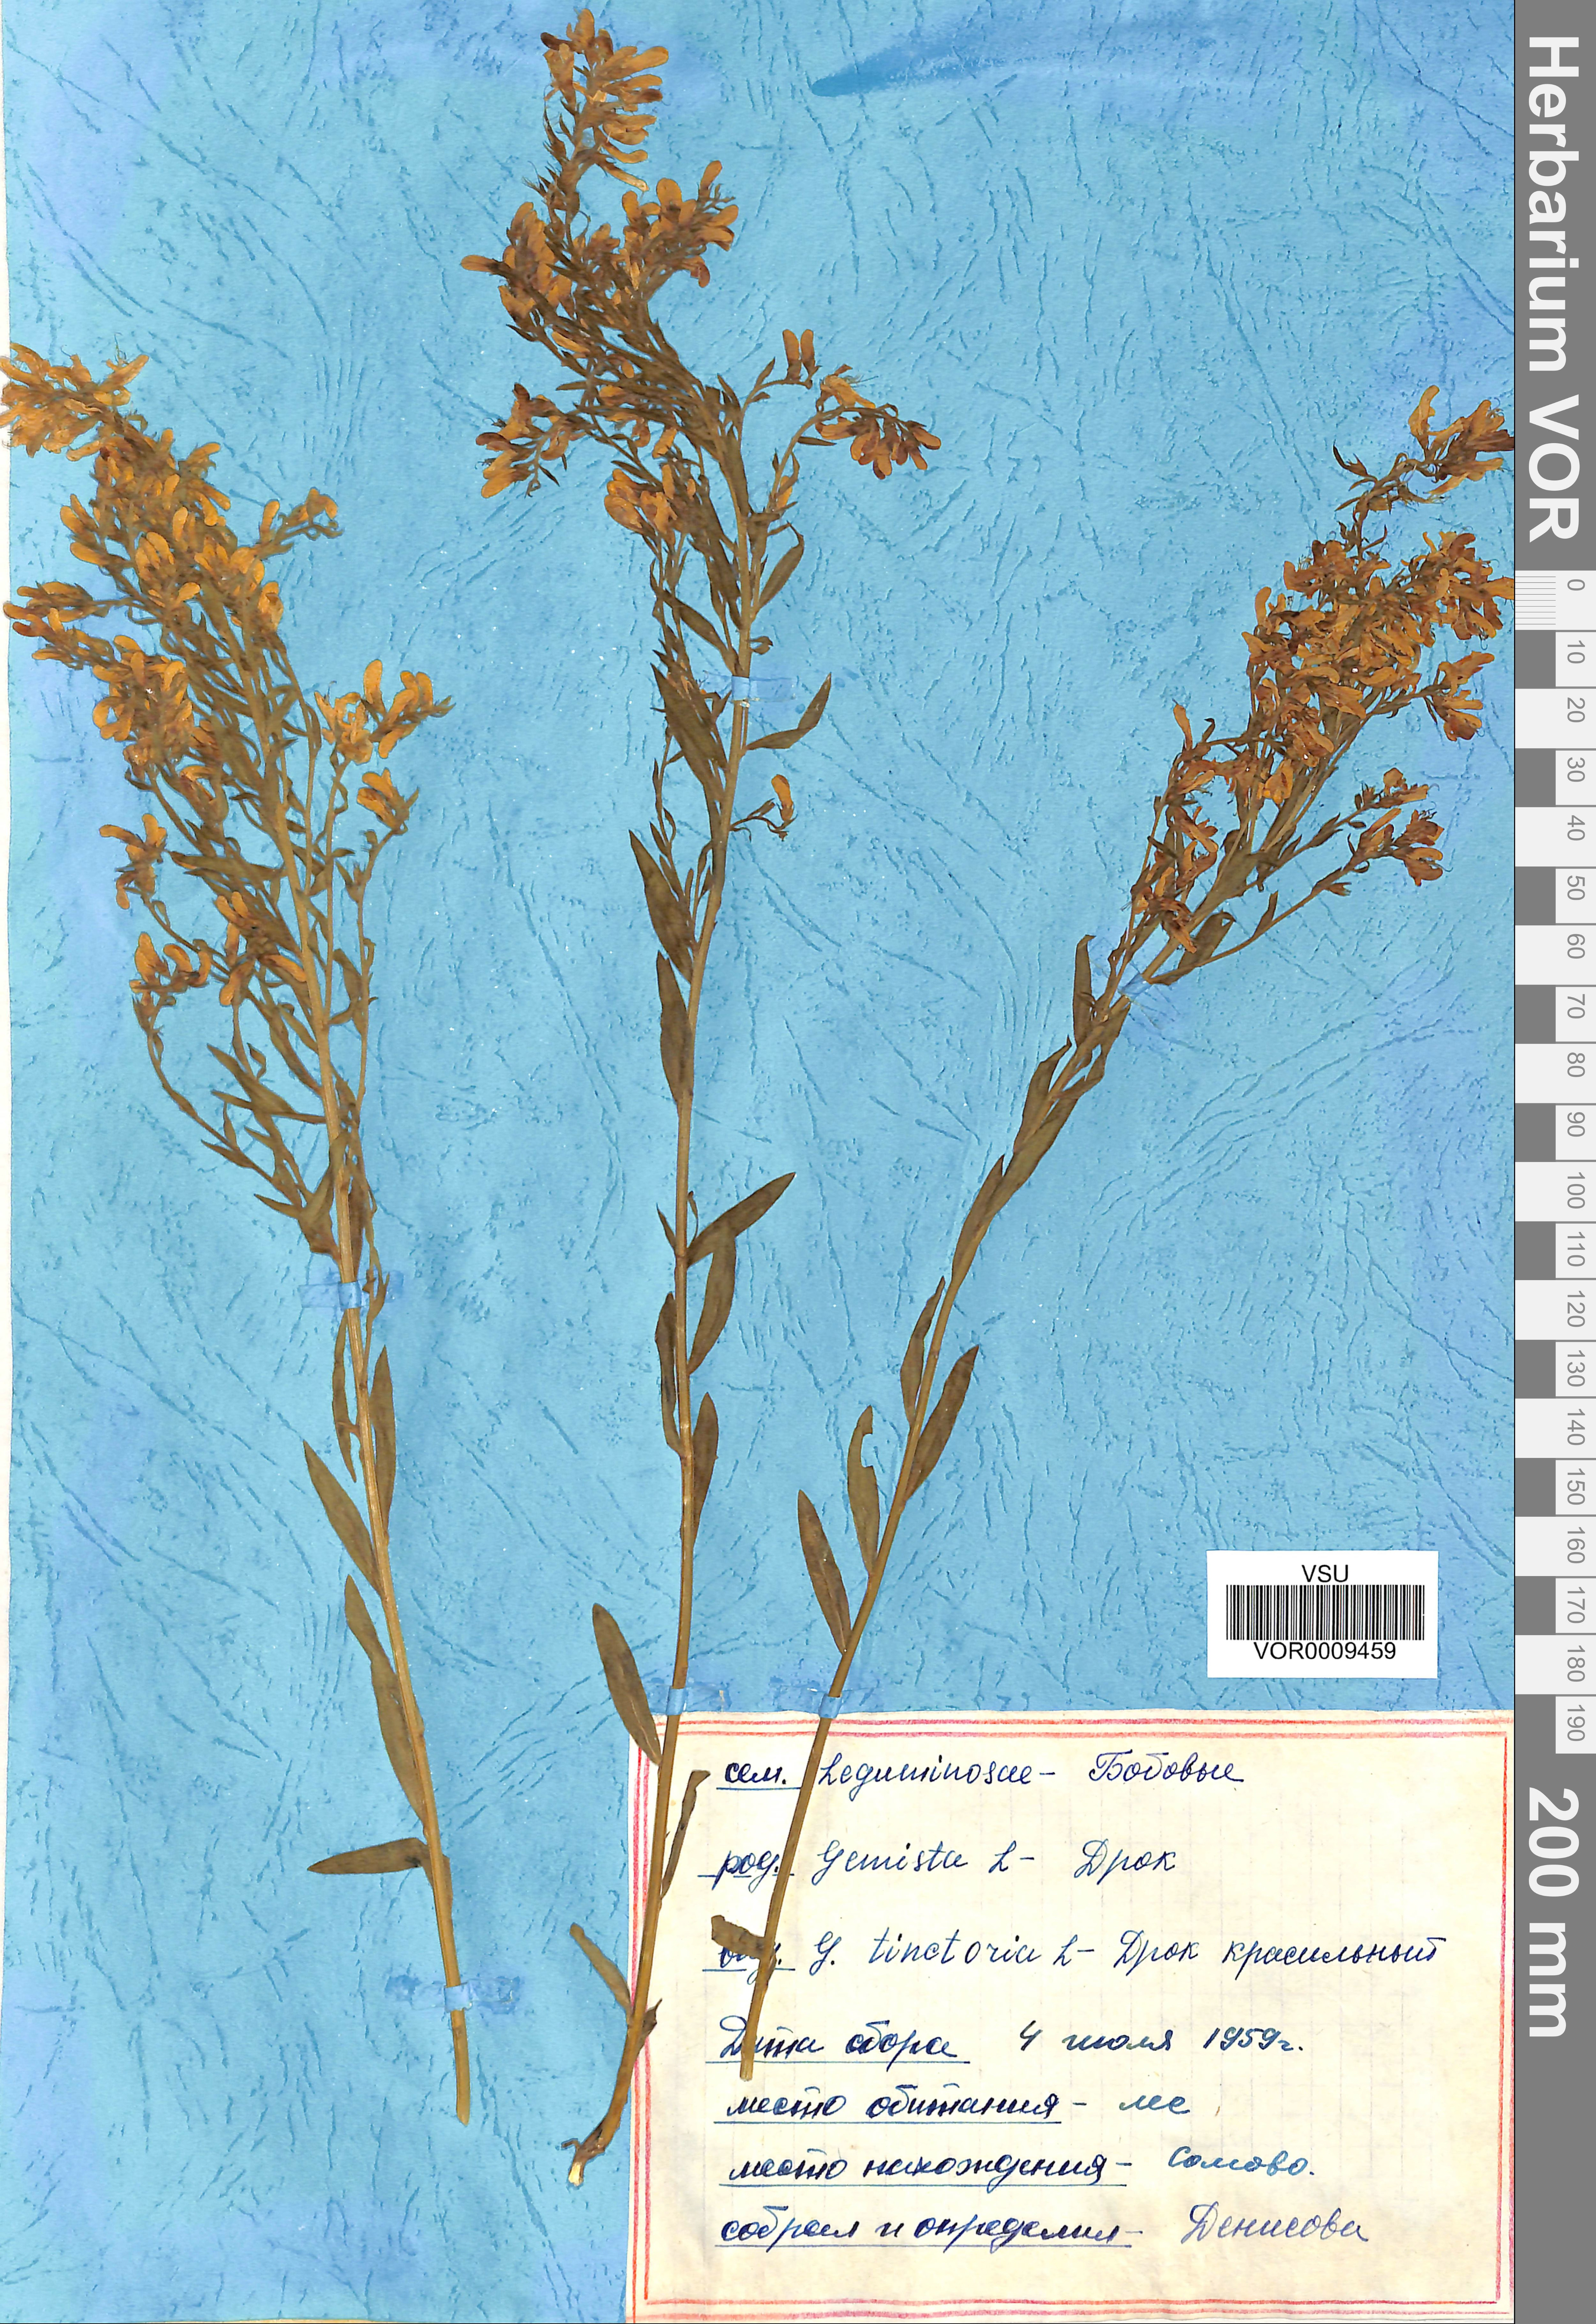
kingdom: Plantae
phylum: Tracheophyta
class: Magnoliopsida
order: Fabales
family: Fabaceae
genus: Genista
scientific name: Genista tinctoria
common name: Dyer's greenweed
